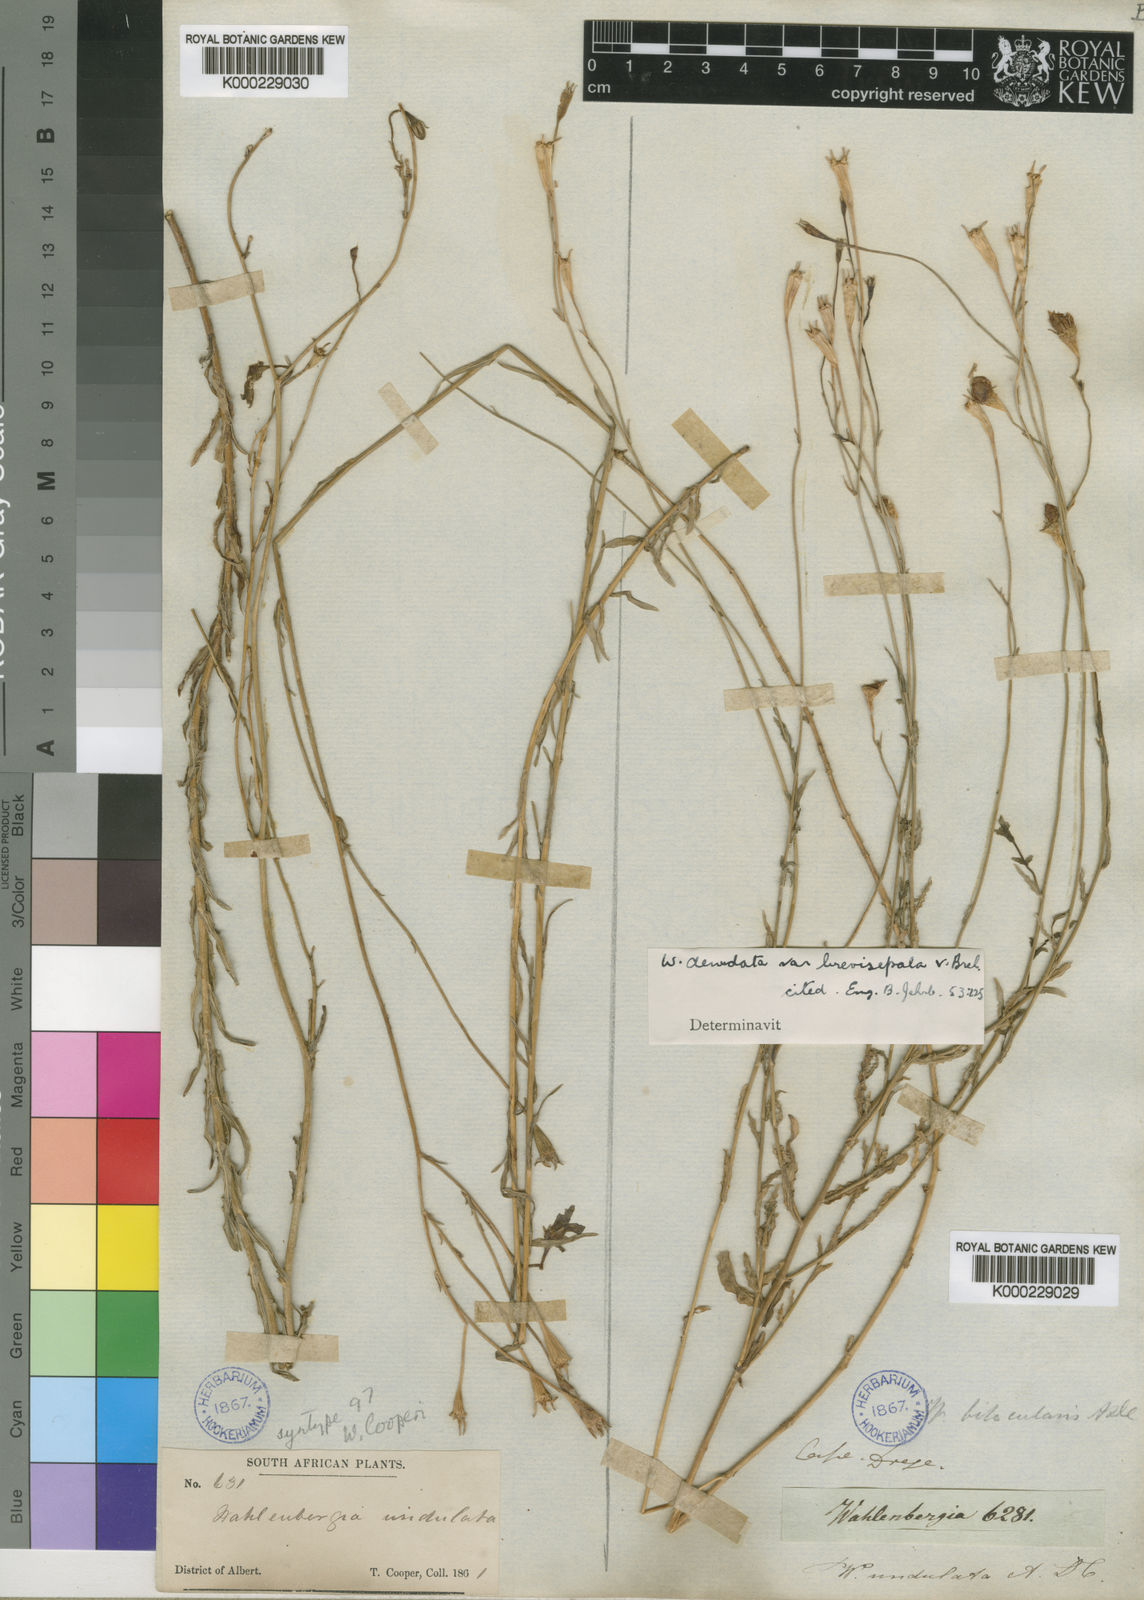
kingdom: Plantae
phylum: Tracheophyta
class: Magnoliopsida
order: Asterales
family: Campanulaceae
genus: Wahlenbergia
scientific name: Wahlenbergia denudata
